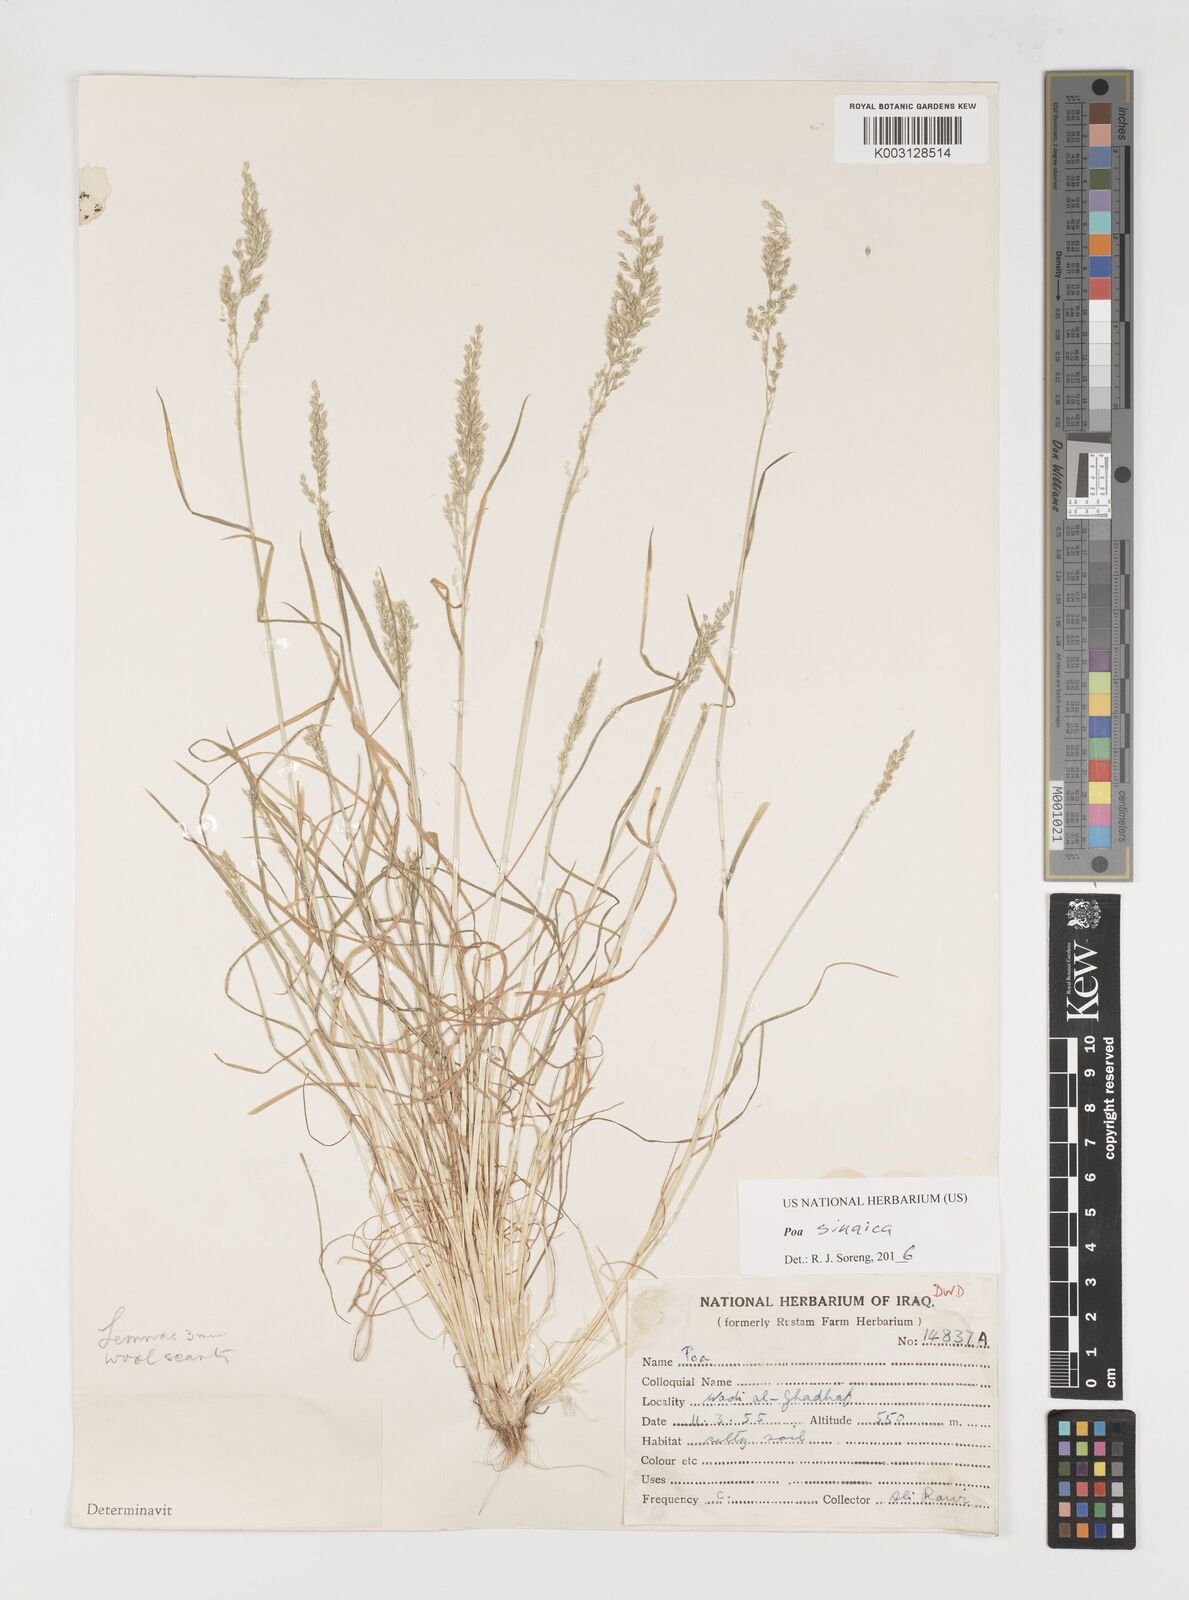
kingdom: Plantae
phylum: Tracheophyta
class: Liliopsida
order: Poales
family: Poaceae
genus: Poa
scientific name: Poa sinaica
